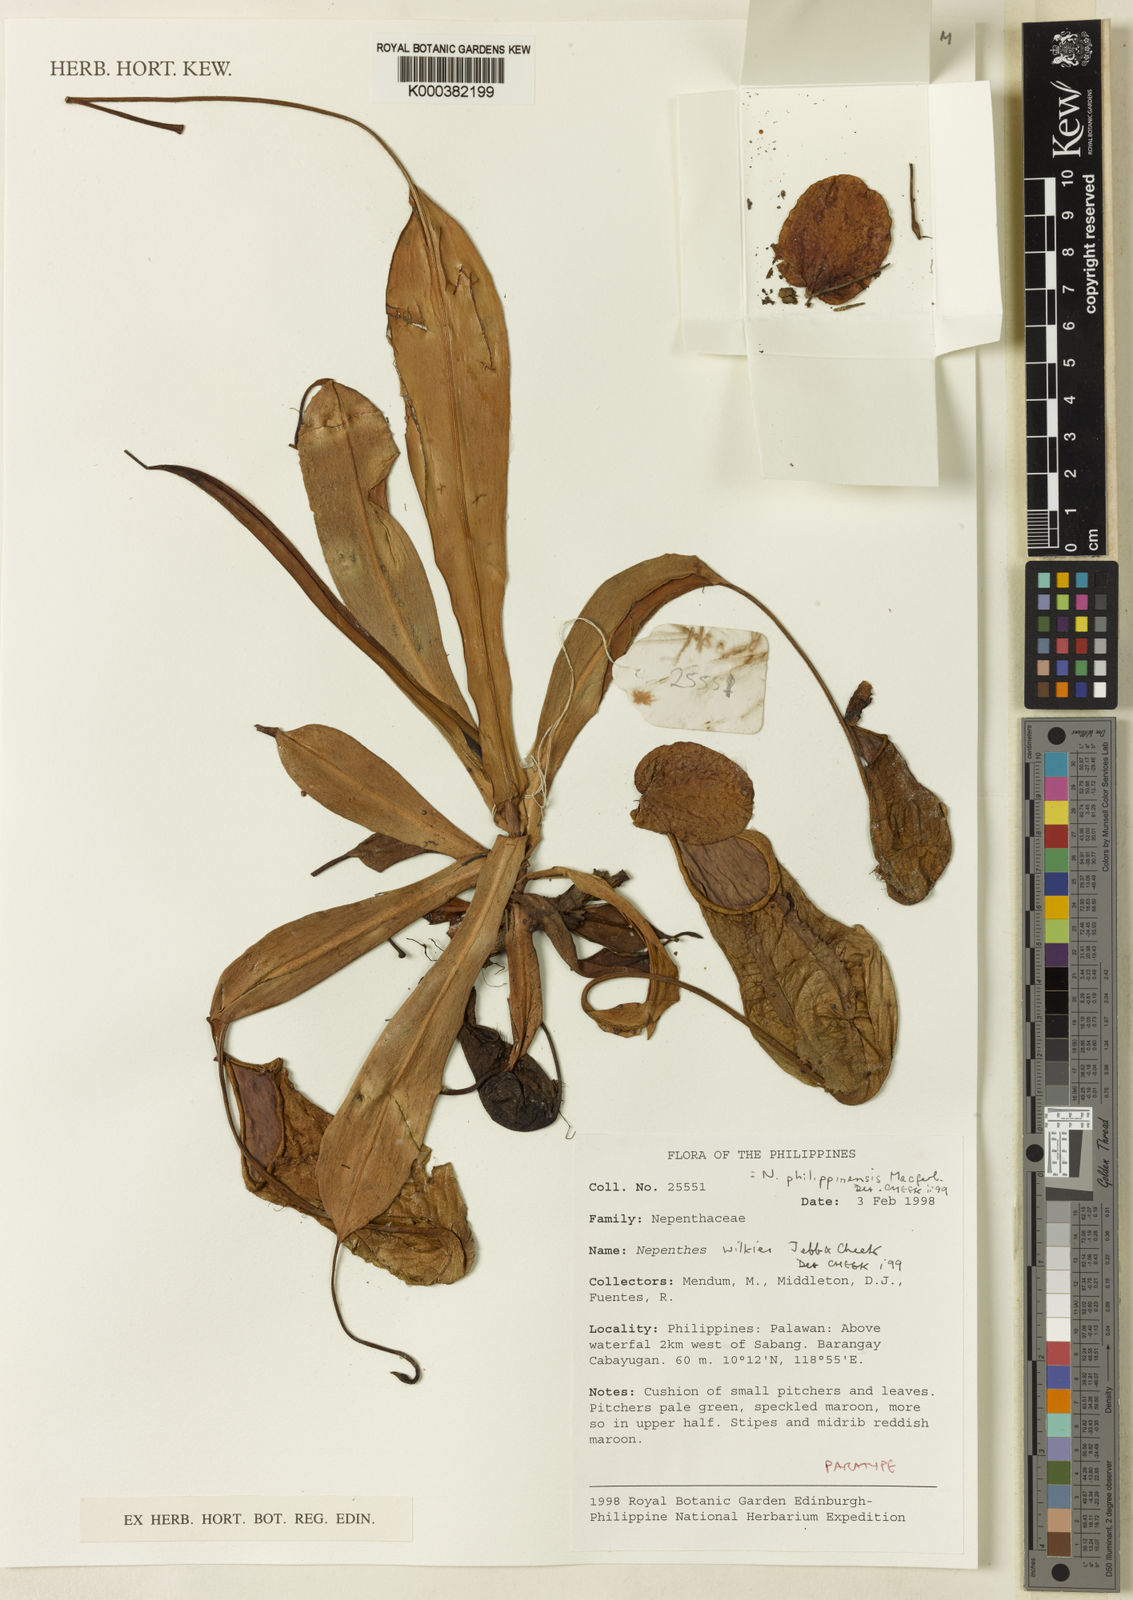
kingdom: Plantae
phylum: Tracheophyta
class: Magnoliopsida
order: Caryophyllales
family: Nepenthaceae
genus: Nepenthes
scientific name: Nepenthes philippinensis
